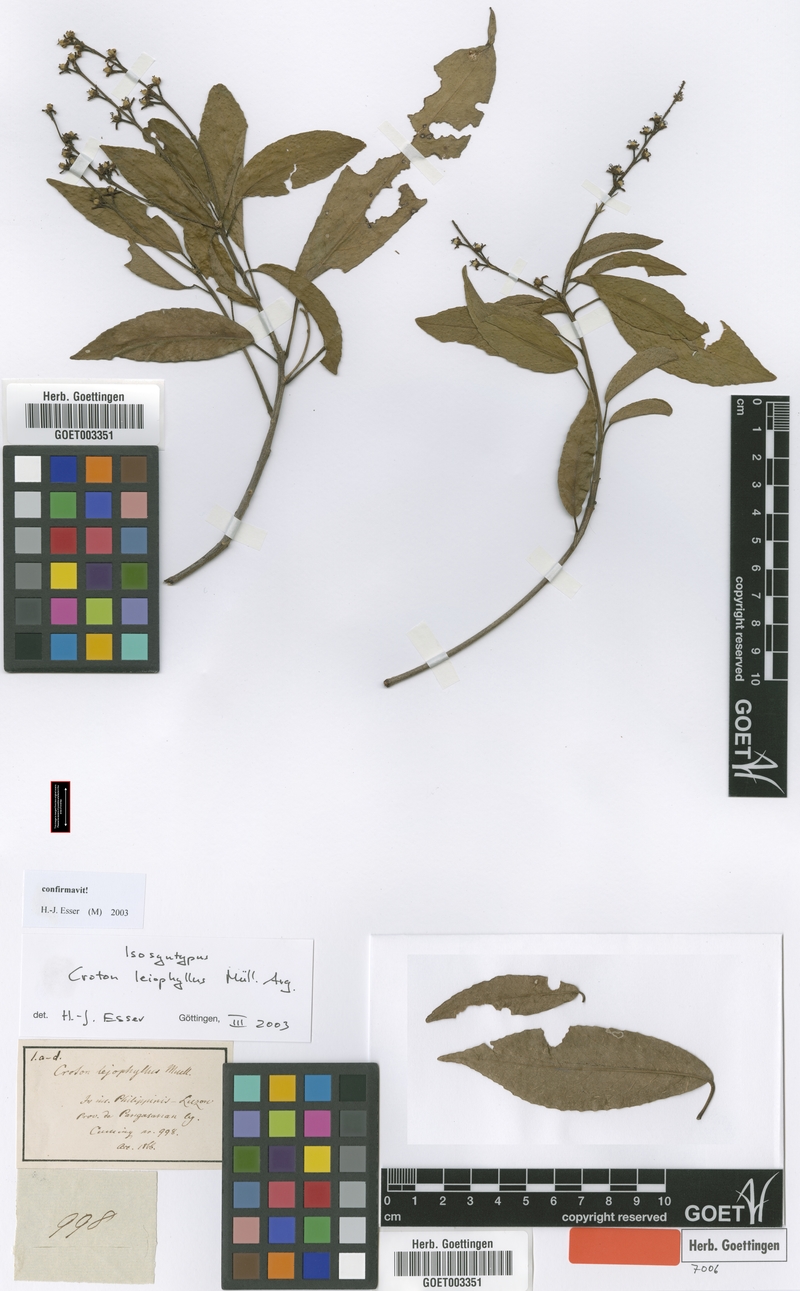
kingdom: Plantae
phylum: Tracheophyta
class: Magnoliopsida
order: Malpighiales
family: Euphorbiaceae
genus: Croton
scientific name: Croton leiophyllus
